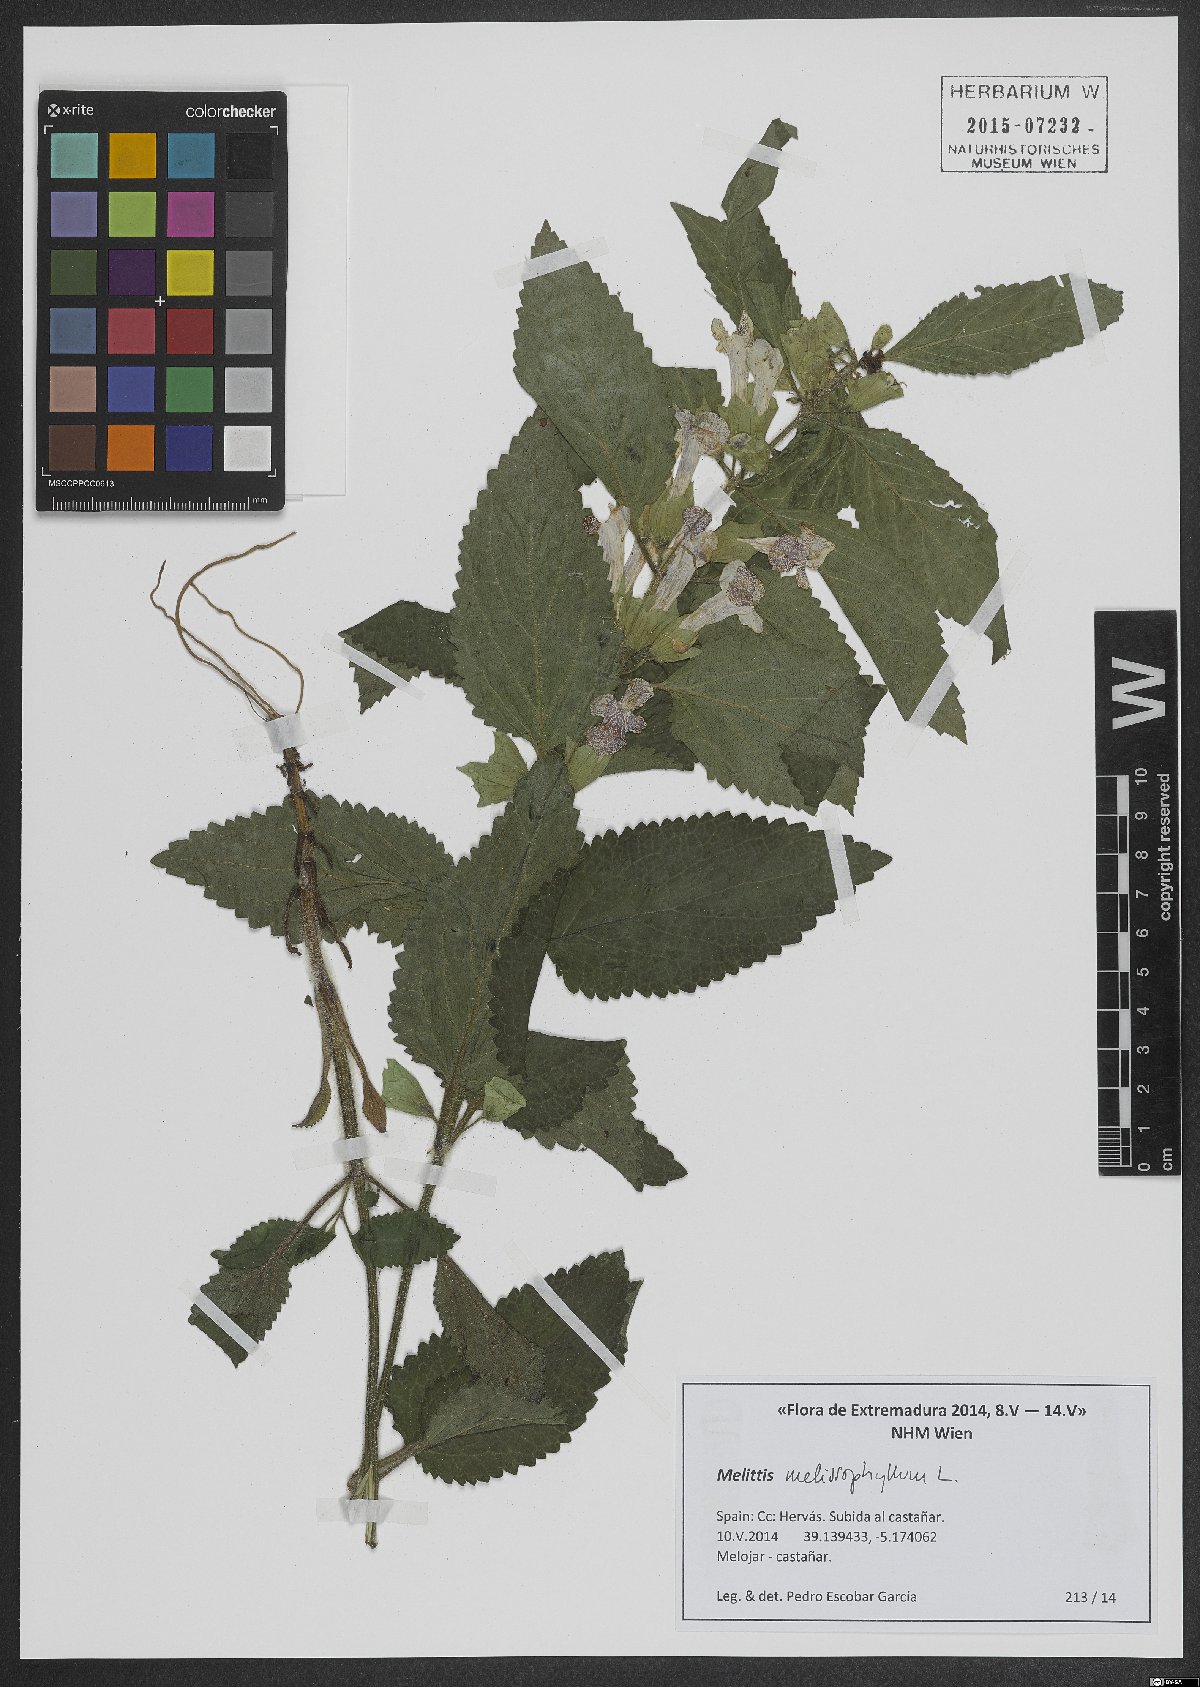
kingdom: Plantae
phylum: Tracheophyta
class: Magnoliopsida
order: Lamiales
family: Lamiaceae
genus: Melittis
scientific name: Melittis melissophyllum
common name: Bastard balm
